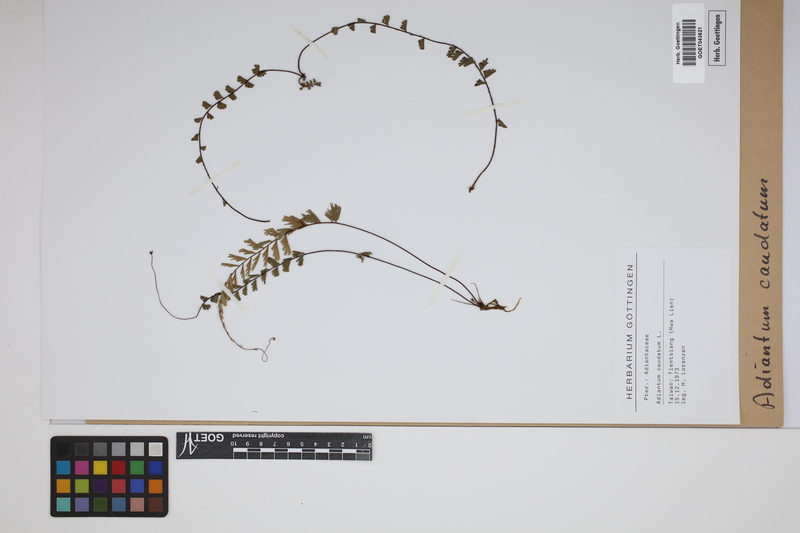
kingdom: Plantae
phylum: Tracheophyta
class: Polypodiopsida
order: Polypodiales
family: Pteridaceae
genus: Adiantum
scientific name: Adiantum caudatum
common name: Tailed maidenhair
